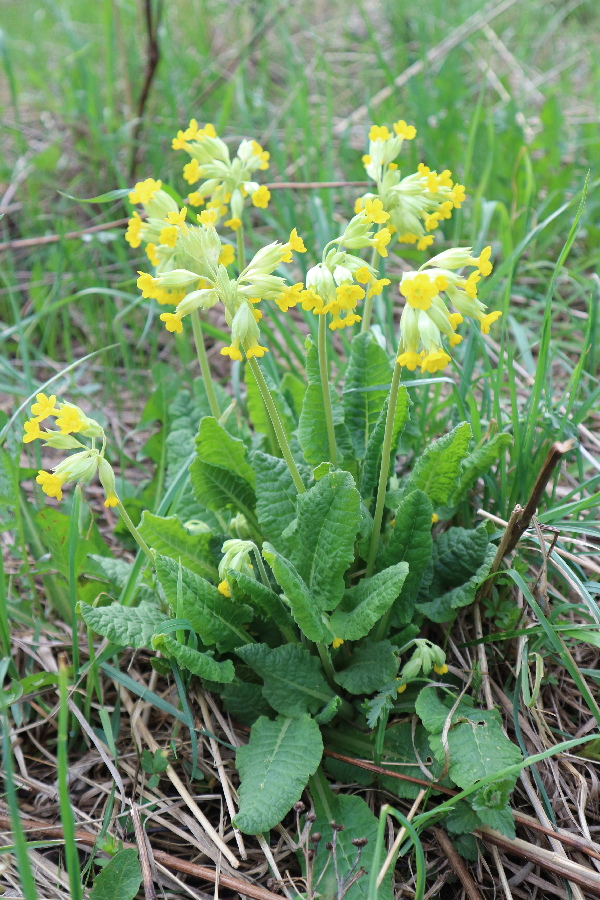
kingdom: Plantae
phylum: Tracheophyta
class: Magnoliopsida
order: Ericales
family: Primulaceae
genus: Primula
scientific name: Primula veris
